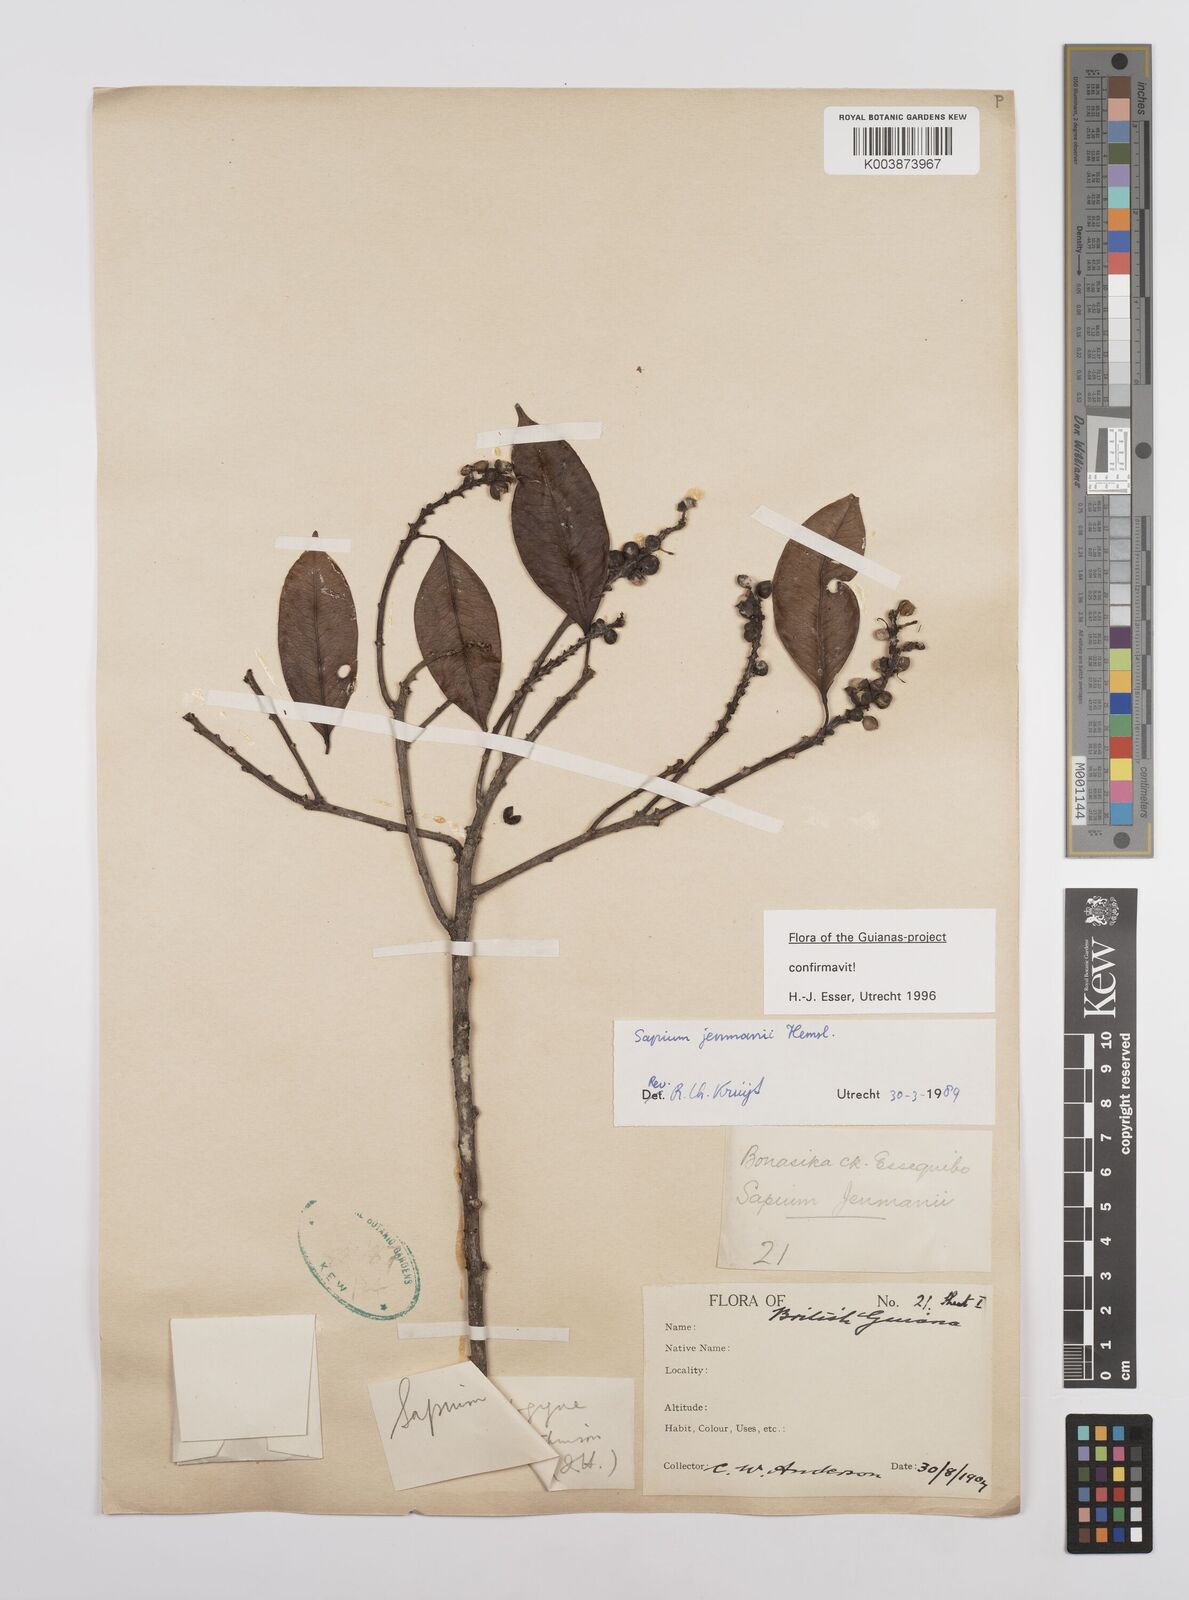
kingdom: Plantae
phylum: Tracheophyta
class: Magnoliopsida
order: Malpighiales
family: Euphorbiaceae
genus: Sapium
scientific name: Sapium jenmannii
